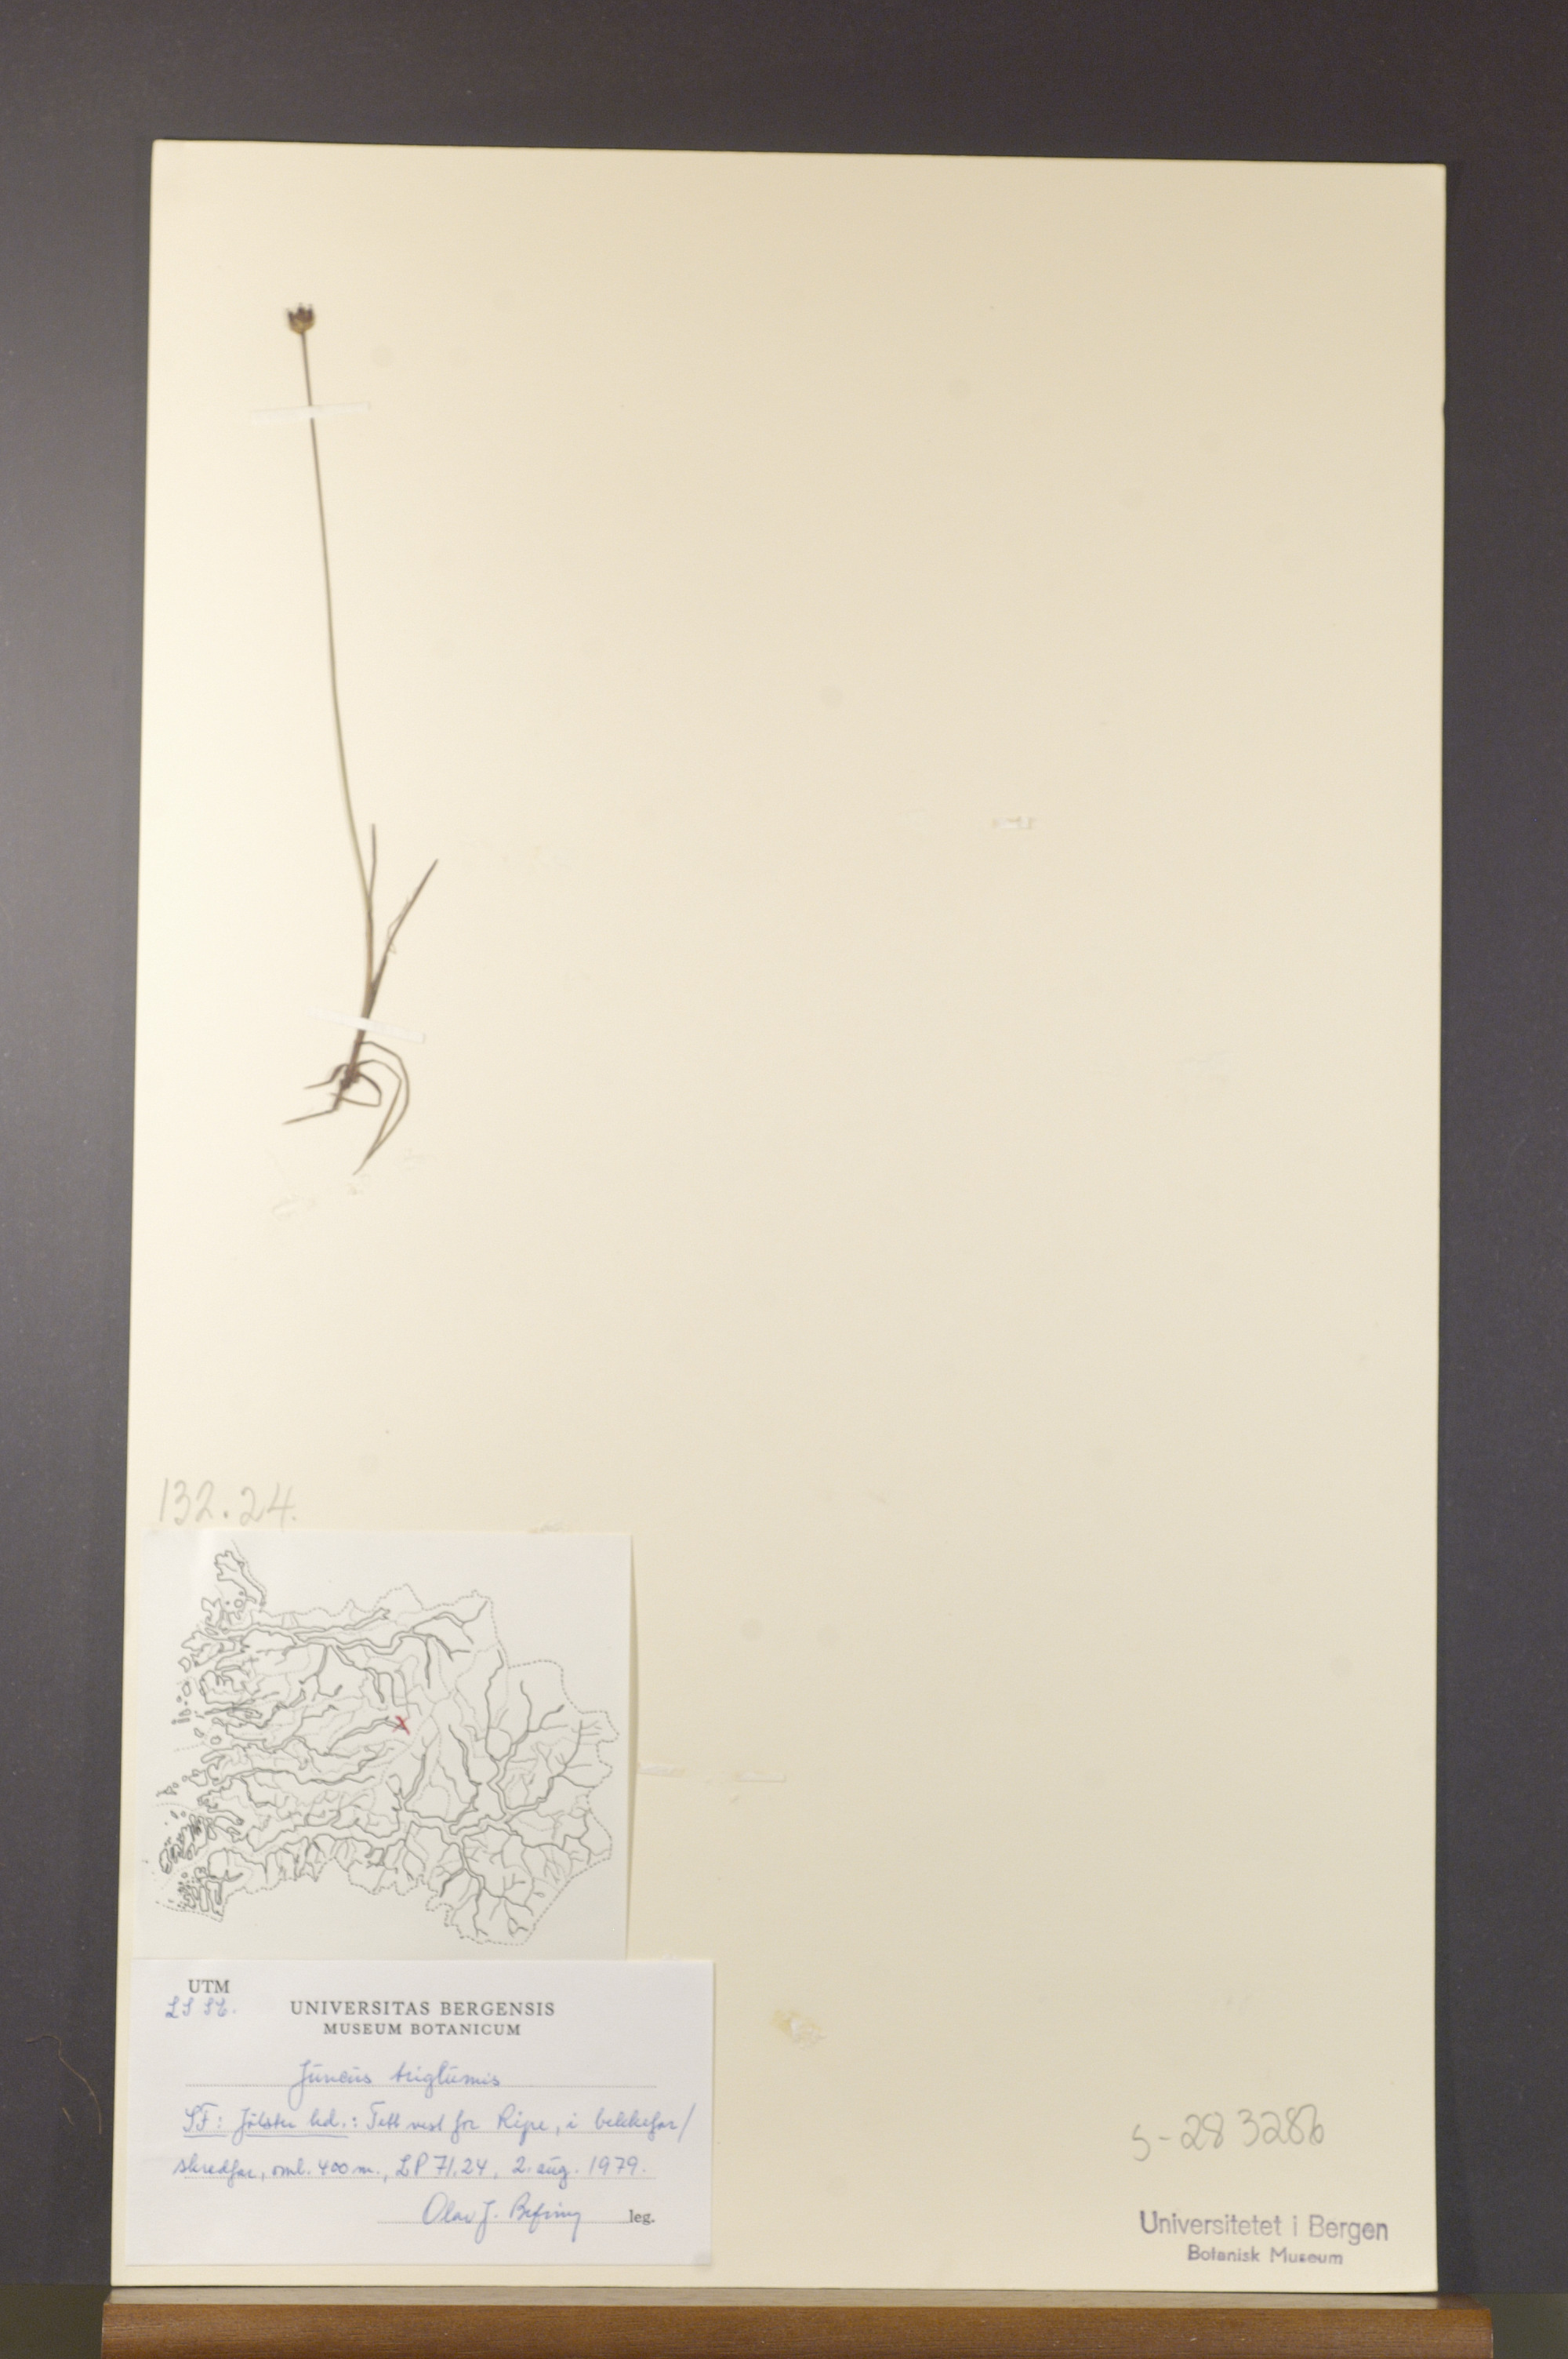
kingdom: Plantae
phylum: Tracheophyta
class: Liliopsida
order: Poales
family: Juncaceae
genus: Juncus
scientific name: Juncus triglumis
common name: Three-flowered rush
